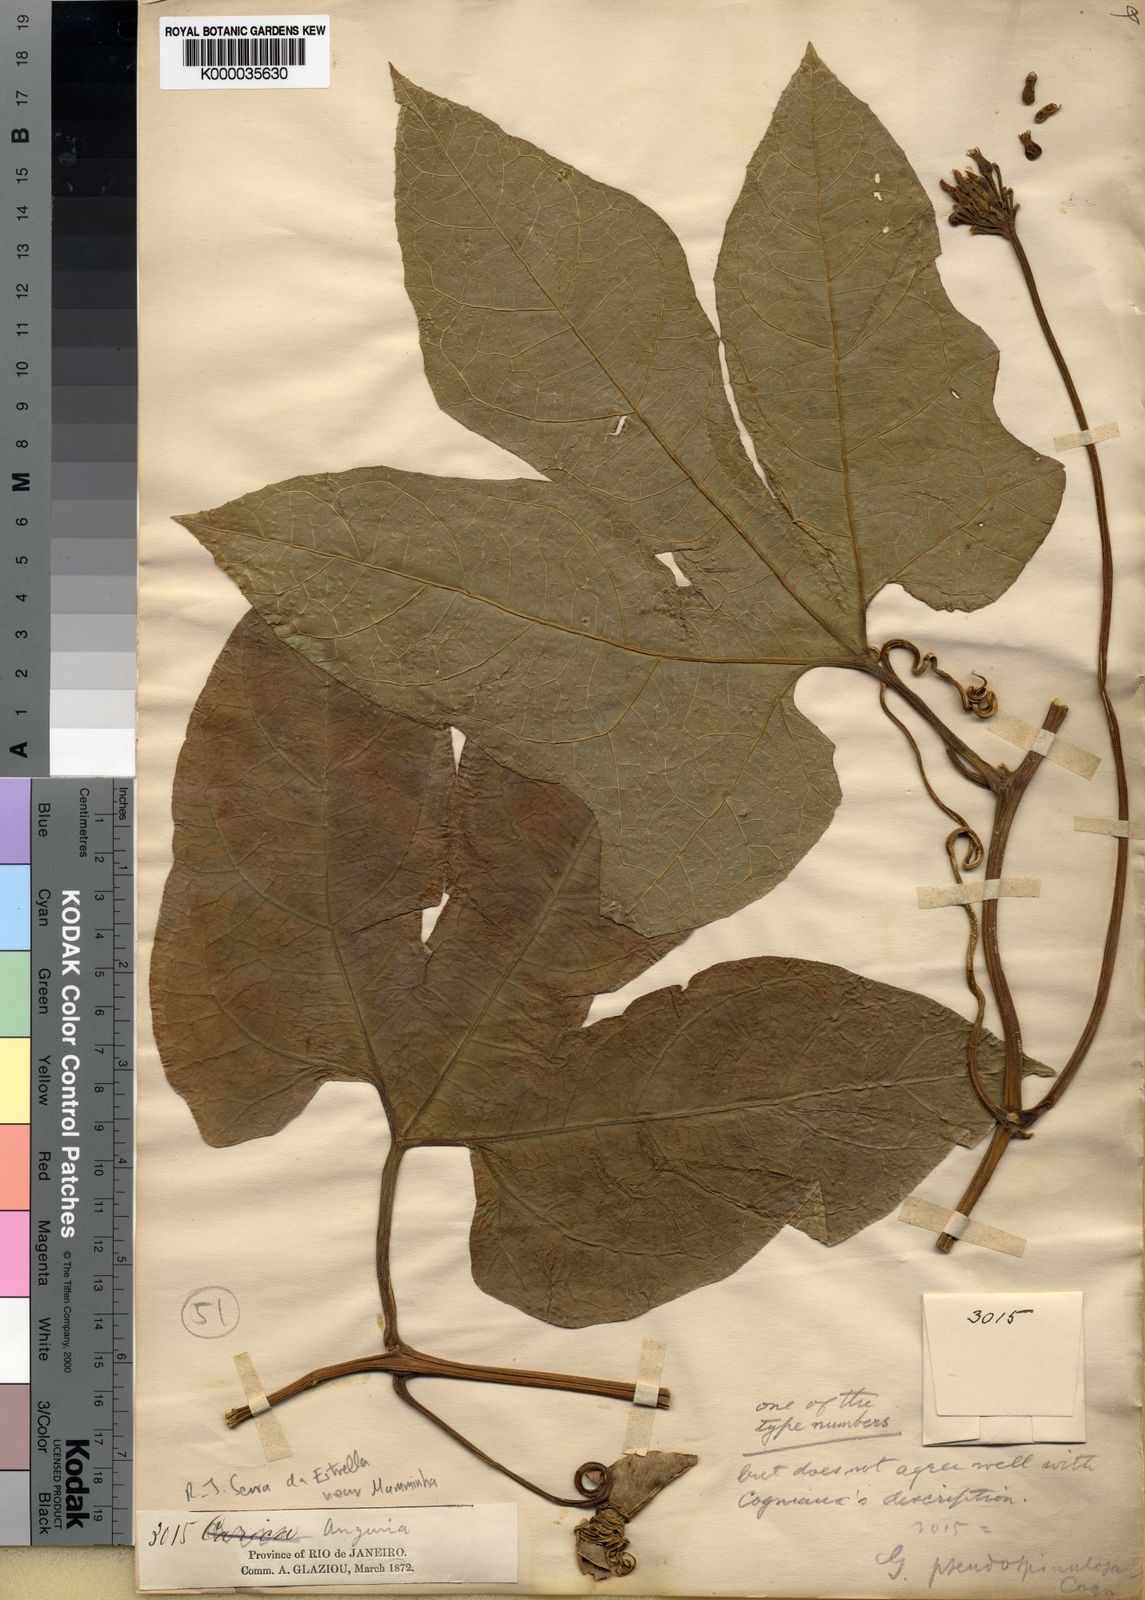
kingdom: Plantae
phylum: Tracheophyta
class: Magnoliopsida
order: Cucurbitales
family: Cucurbitaceae
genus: Gurania
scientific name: Gurania lobata
